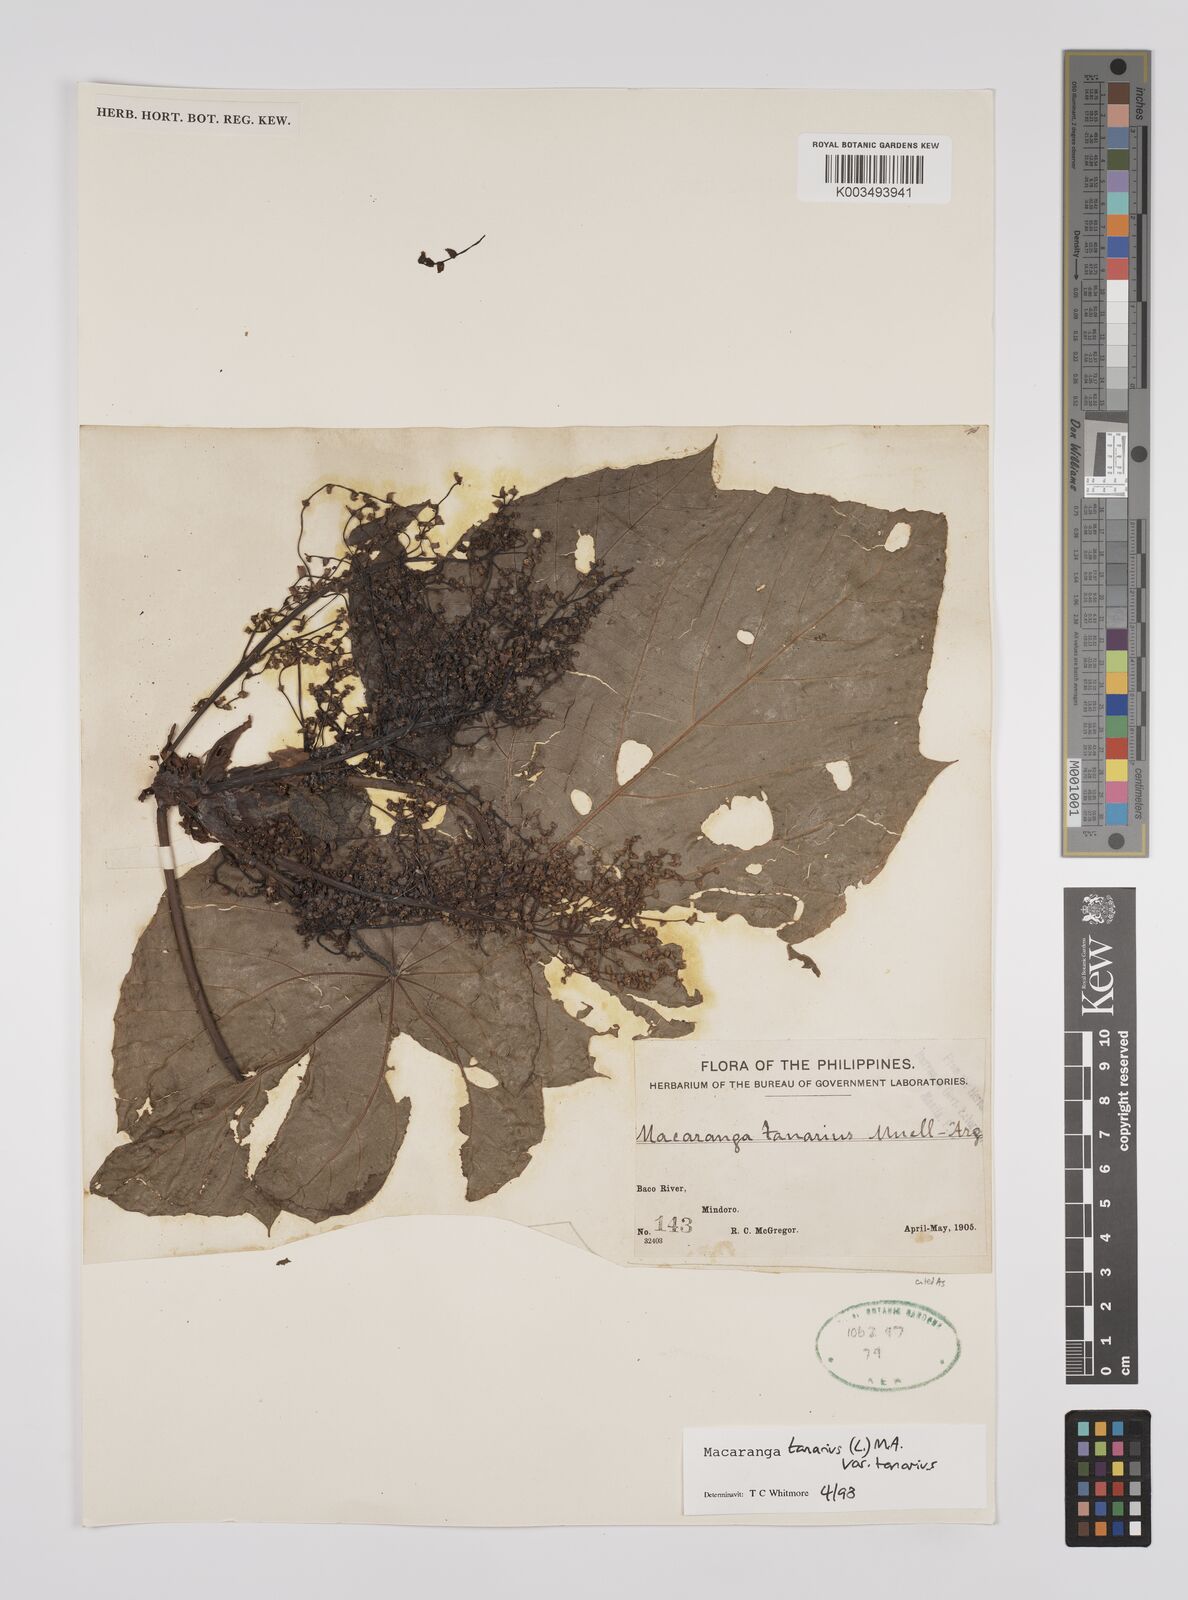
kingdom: Plantae
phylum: Tracheophyta
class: Magnoliopsida
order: Malpighiales
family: Euphorbiaceae
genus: Macaranga
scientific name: Macaranga tanarius
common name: Parasol leaf tree
